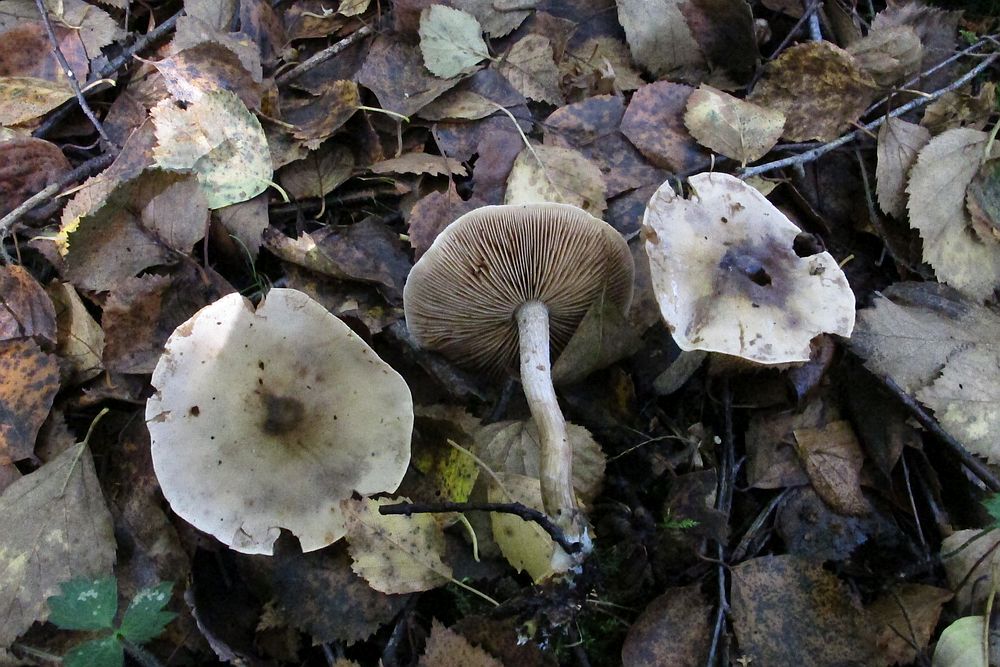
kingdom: Fungi
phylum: Basidiomycota
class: Agaricomycetes
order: Agaricales
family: Hymenogastraceae
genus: Hebeloma
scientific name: Hebeloma album
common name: skør tåreblad
